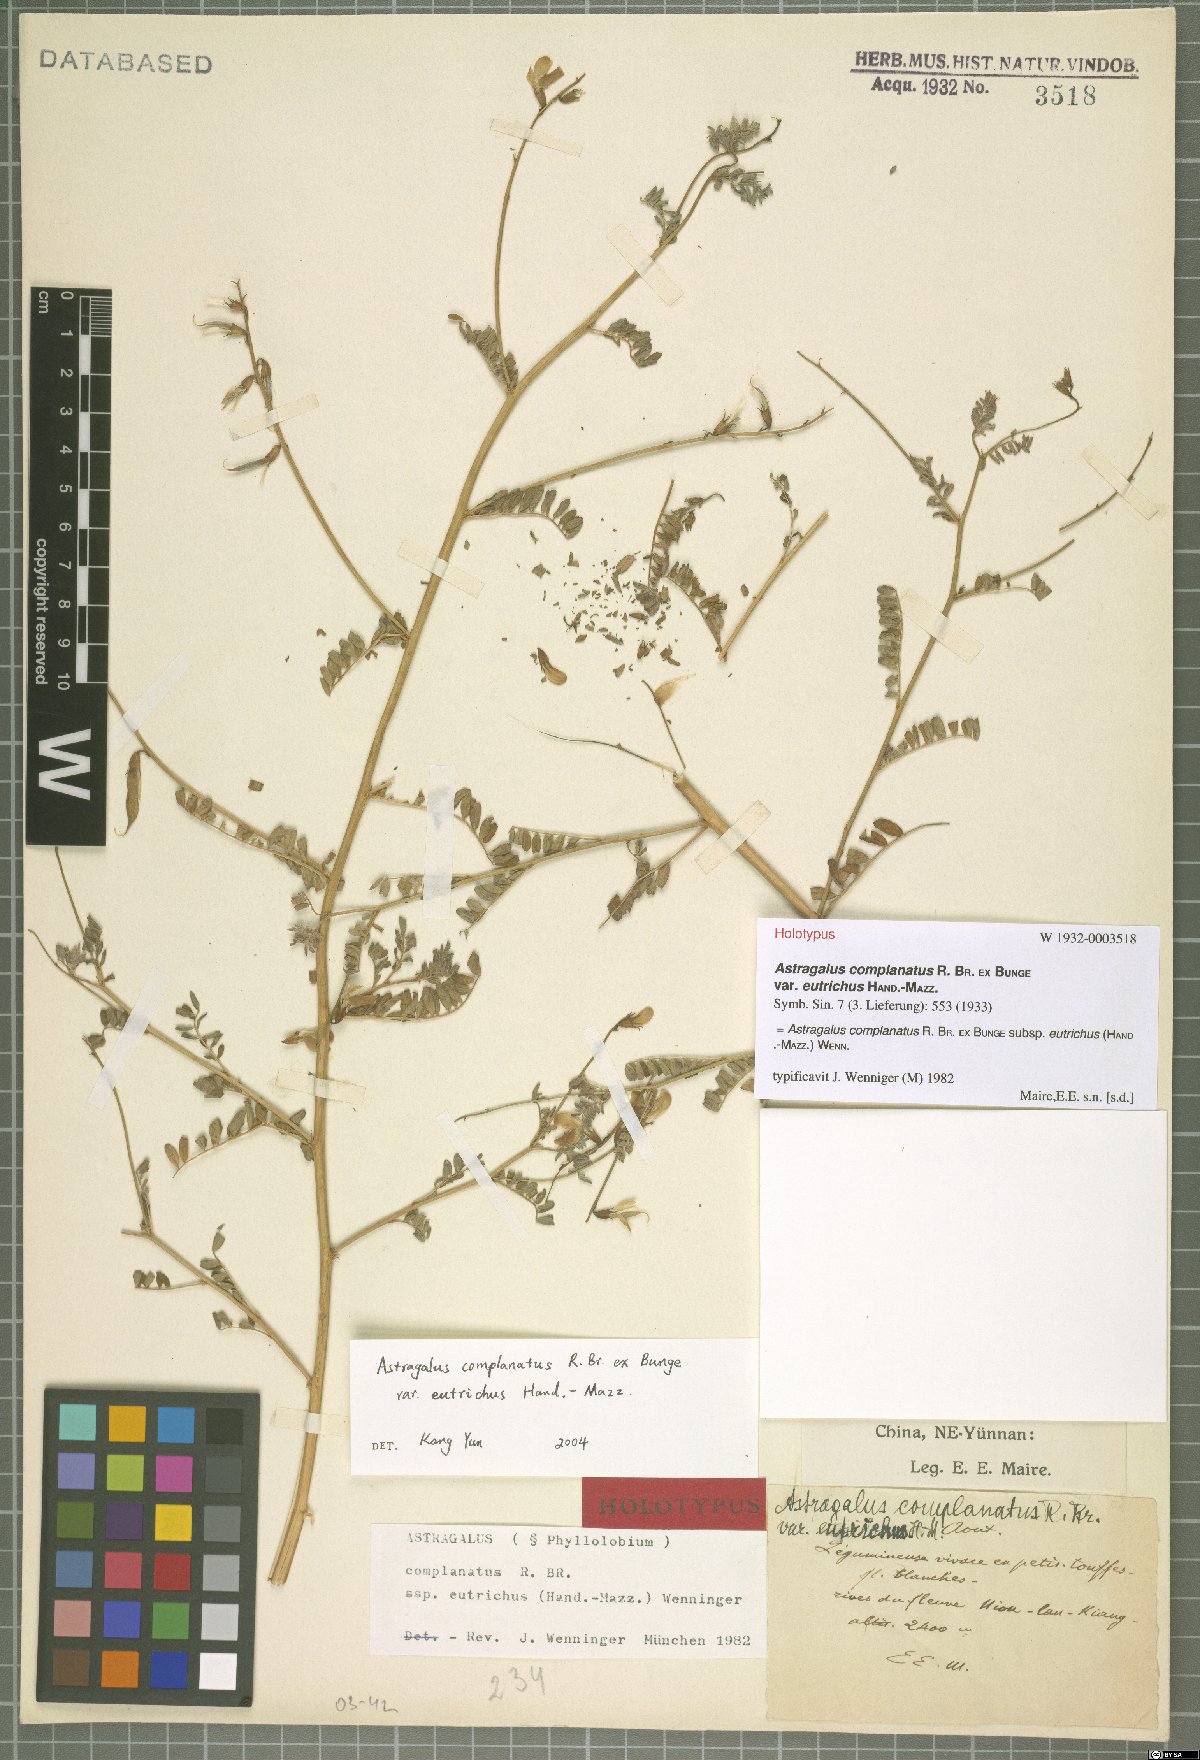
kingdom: Plantae
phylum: Tracheophyta
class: Magnoliopsida
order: Fabales
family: Fabaceae
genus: Phyllolobium
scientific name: Phyllolobium eutrichus
